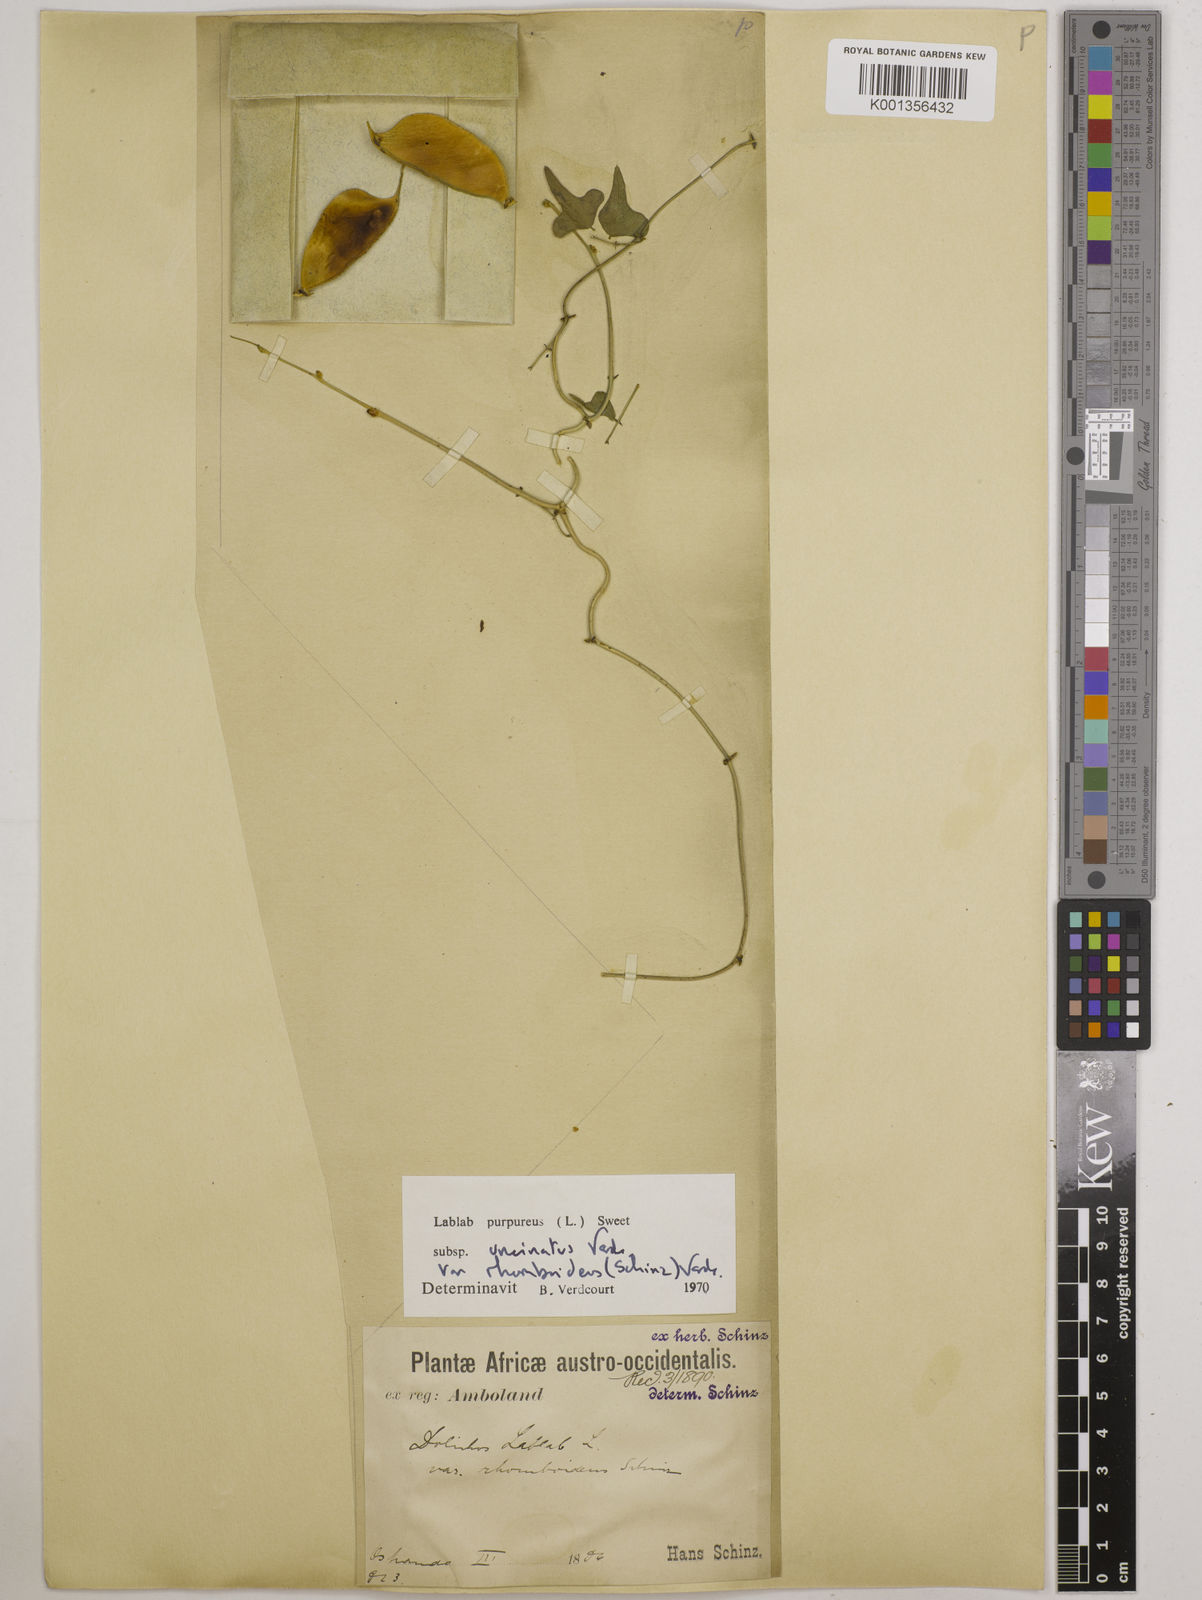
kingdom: Plantae
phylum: Tracheophyta
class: Magnoliopsida
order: Fabales
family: Fabaceae
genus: Lablab
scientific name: Lablab purpureus
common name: Lablab-bean
